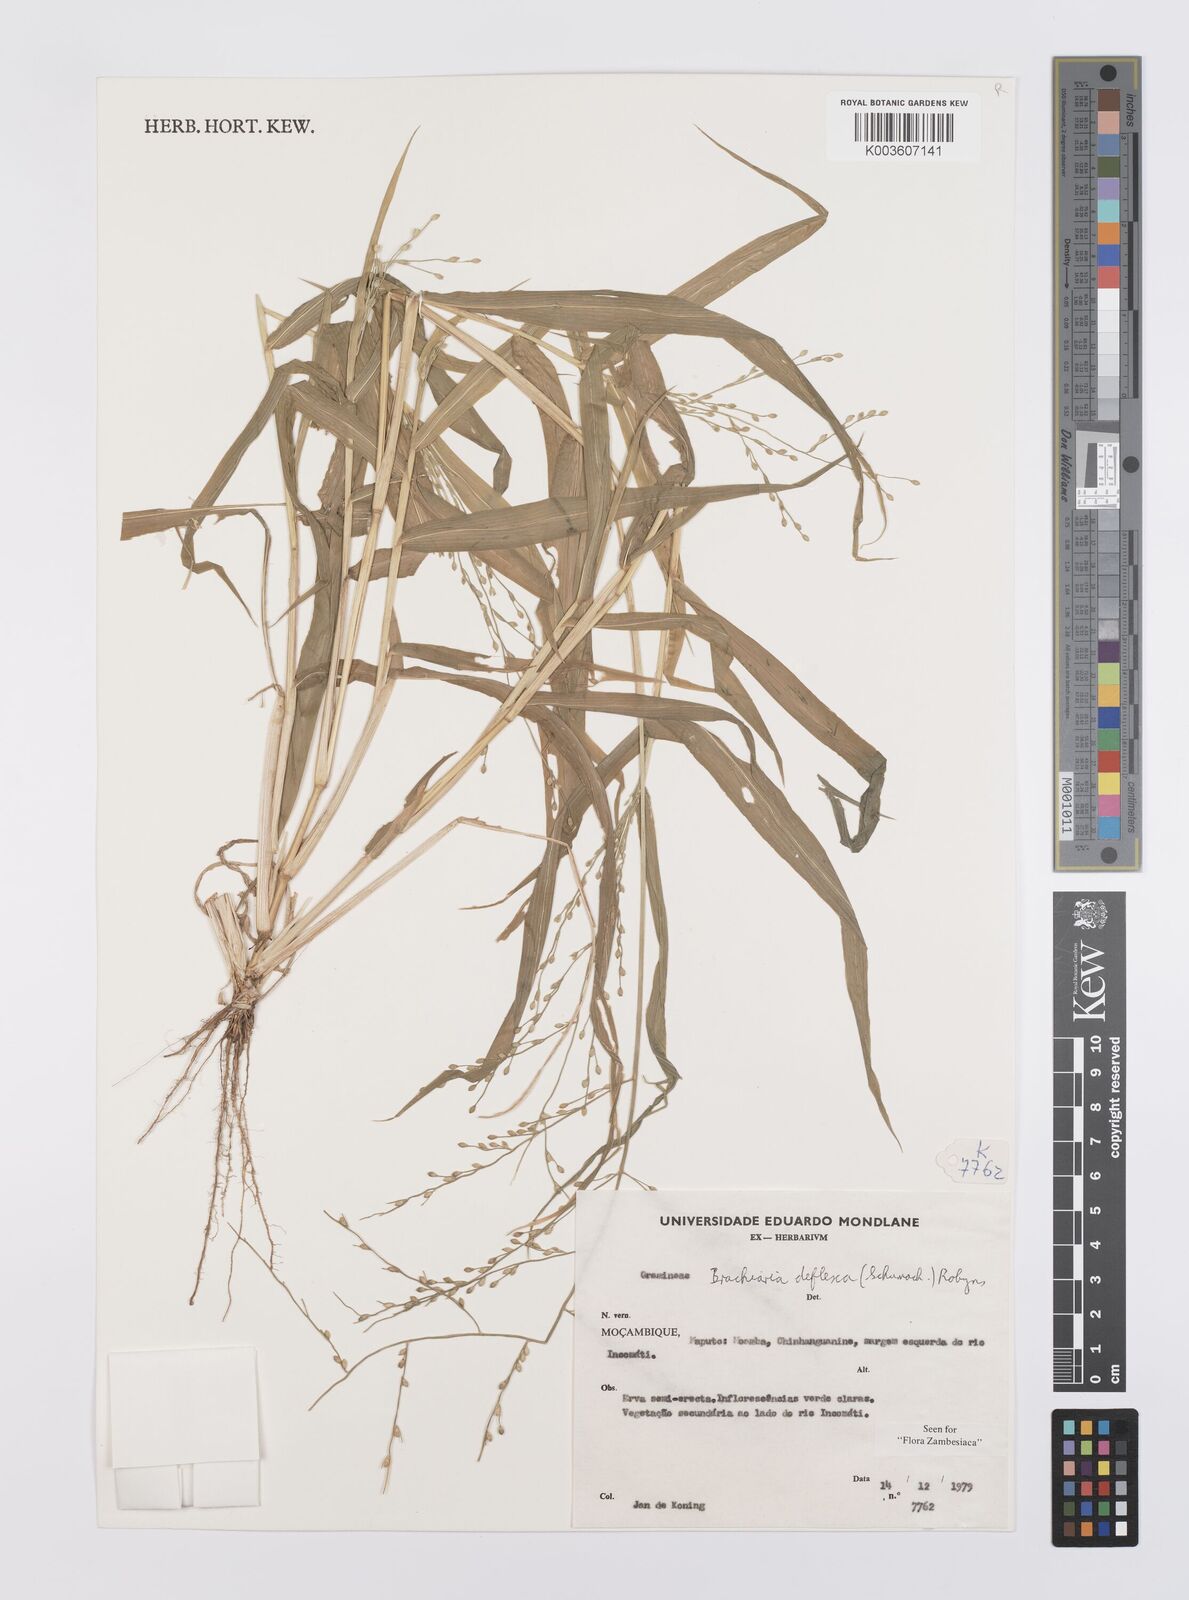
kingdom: Plantae
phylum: Tracheophyta
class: Liliopsida
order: Poales
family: Poaceae
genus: Urochloa
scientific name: Urochloa deflexa
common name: Guinea millet
